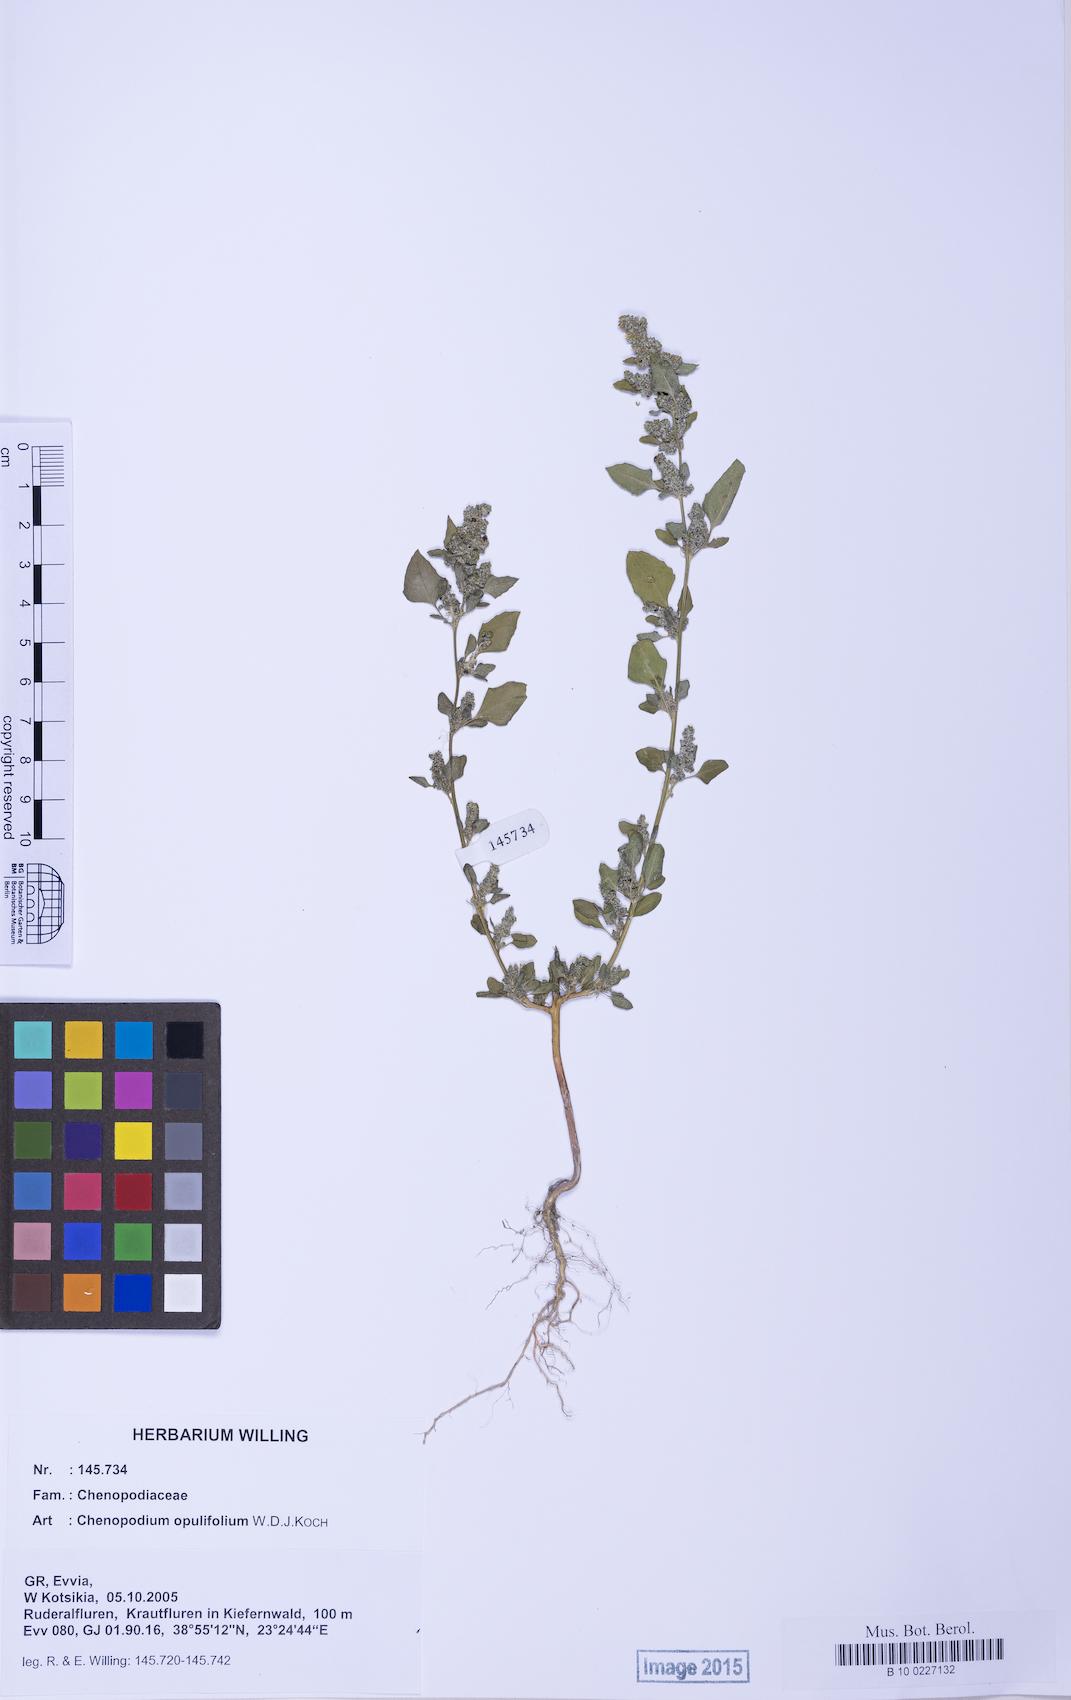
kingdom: Plantae
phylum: Tracheophyta
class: Magnoliopsida
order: Caryophyllales
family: Amaranthaceae
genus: Chenopodium
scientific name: Chenopodium opulifolium
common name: Grey goosefoot
